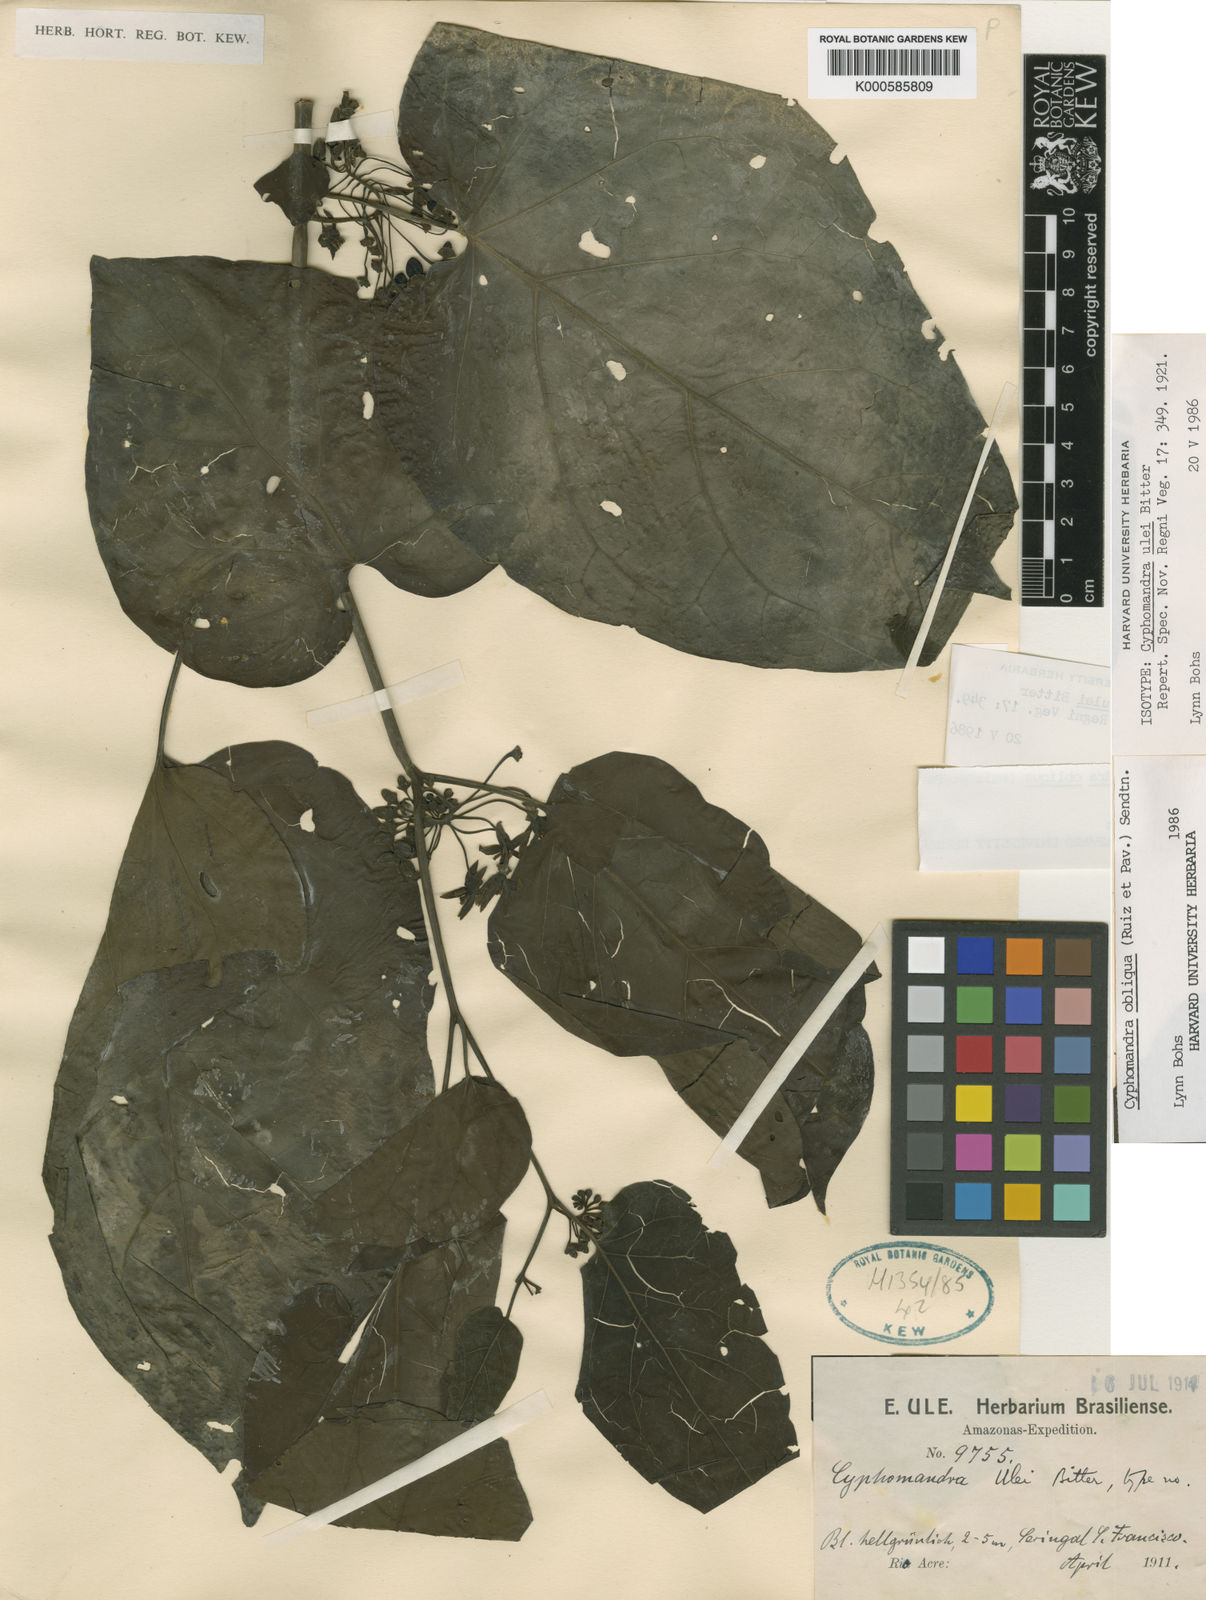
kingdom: Plantae
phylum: Tracheophyta
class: Magnoliopsida
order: Solanales
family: Solanaceae
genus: Solanum
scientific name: Solanum obliquum
